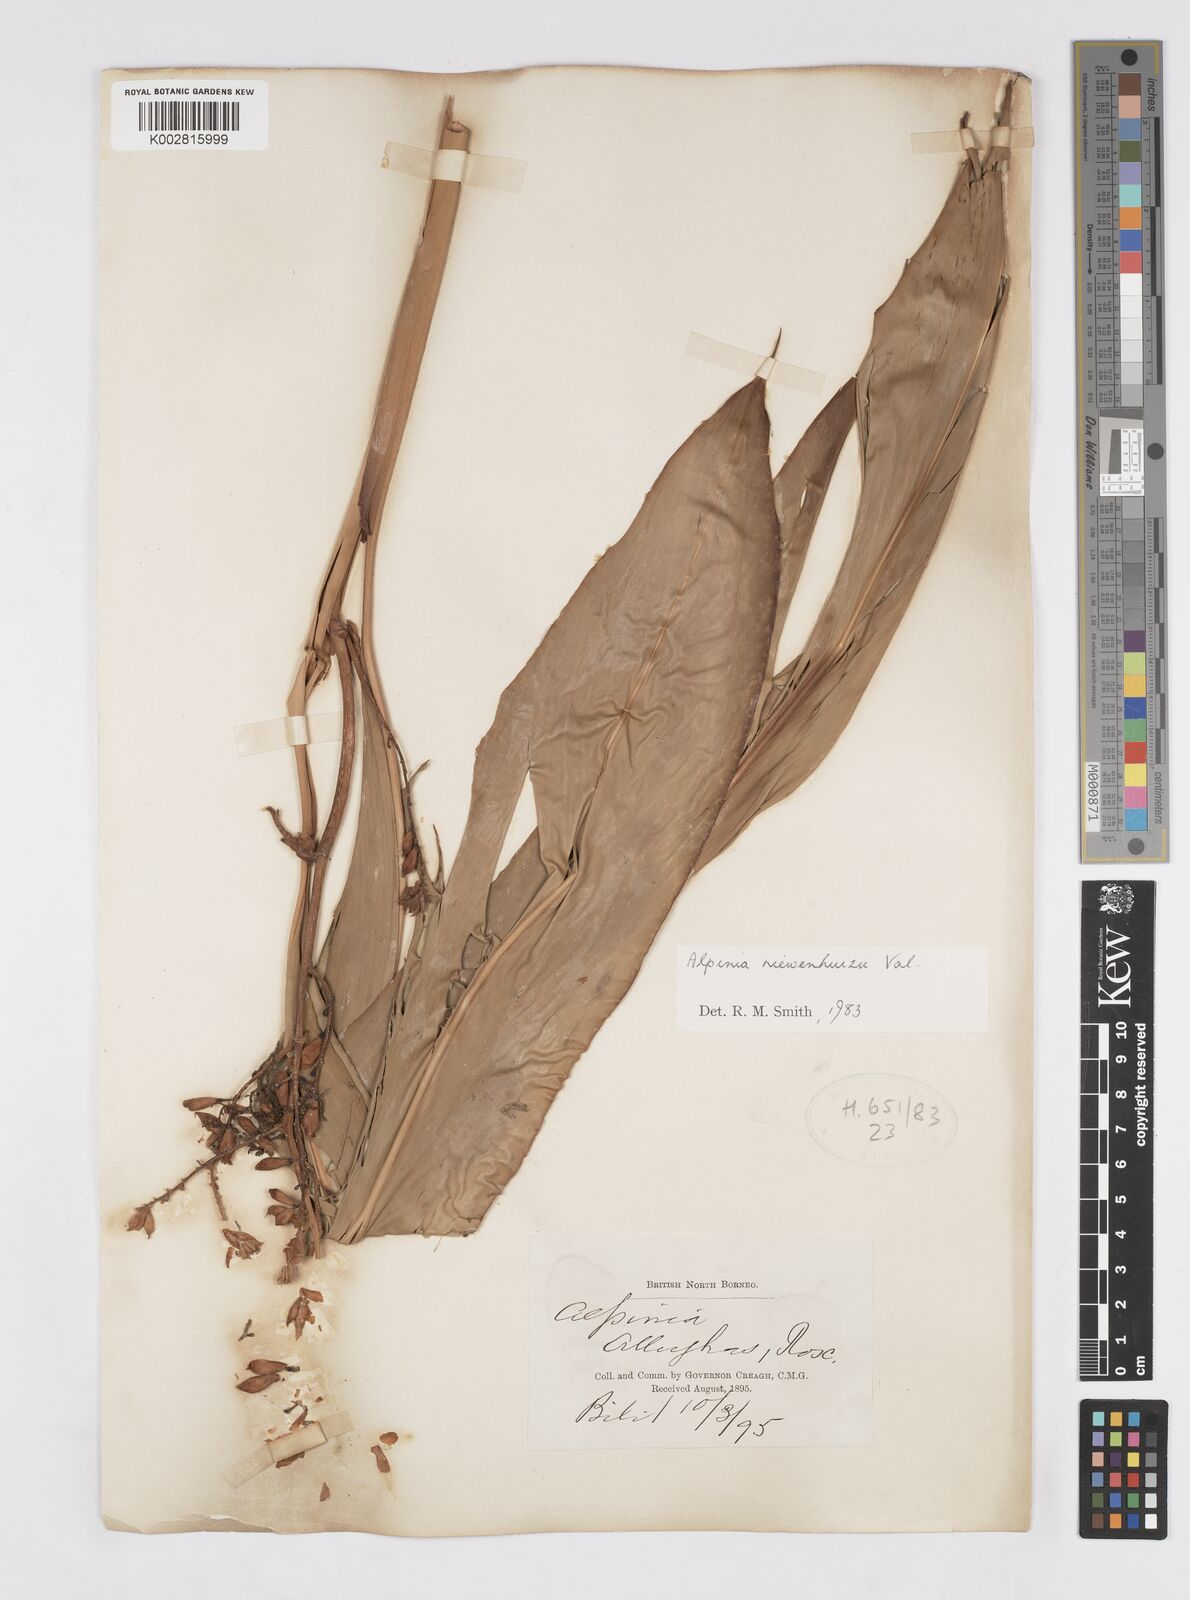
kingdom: Plantae
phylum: Tracheophyta
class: Liliopsida
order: Zingiberales
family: Zingiberaceae
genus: Alpinia
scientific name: Alpinia nieuwenhuizii
